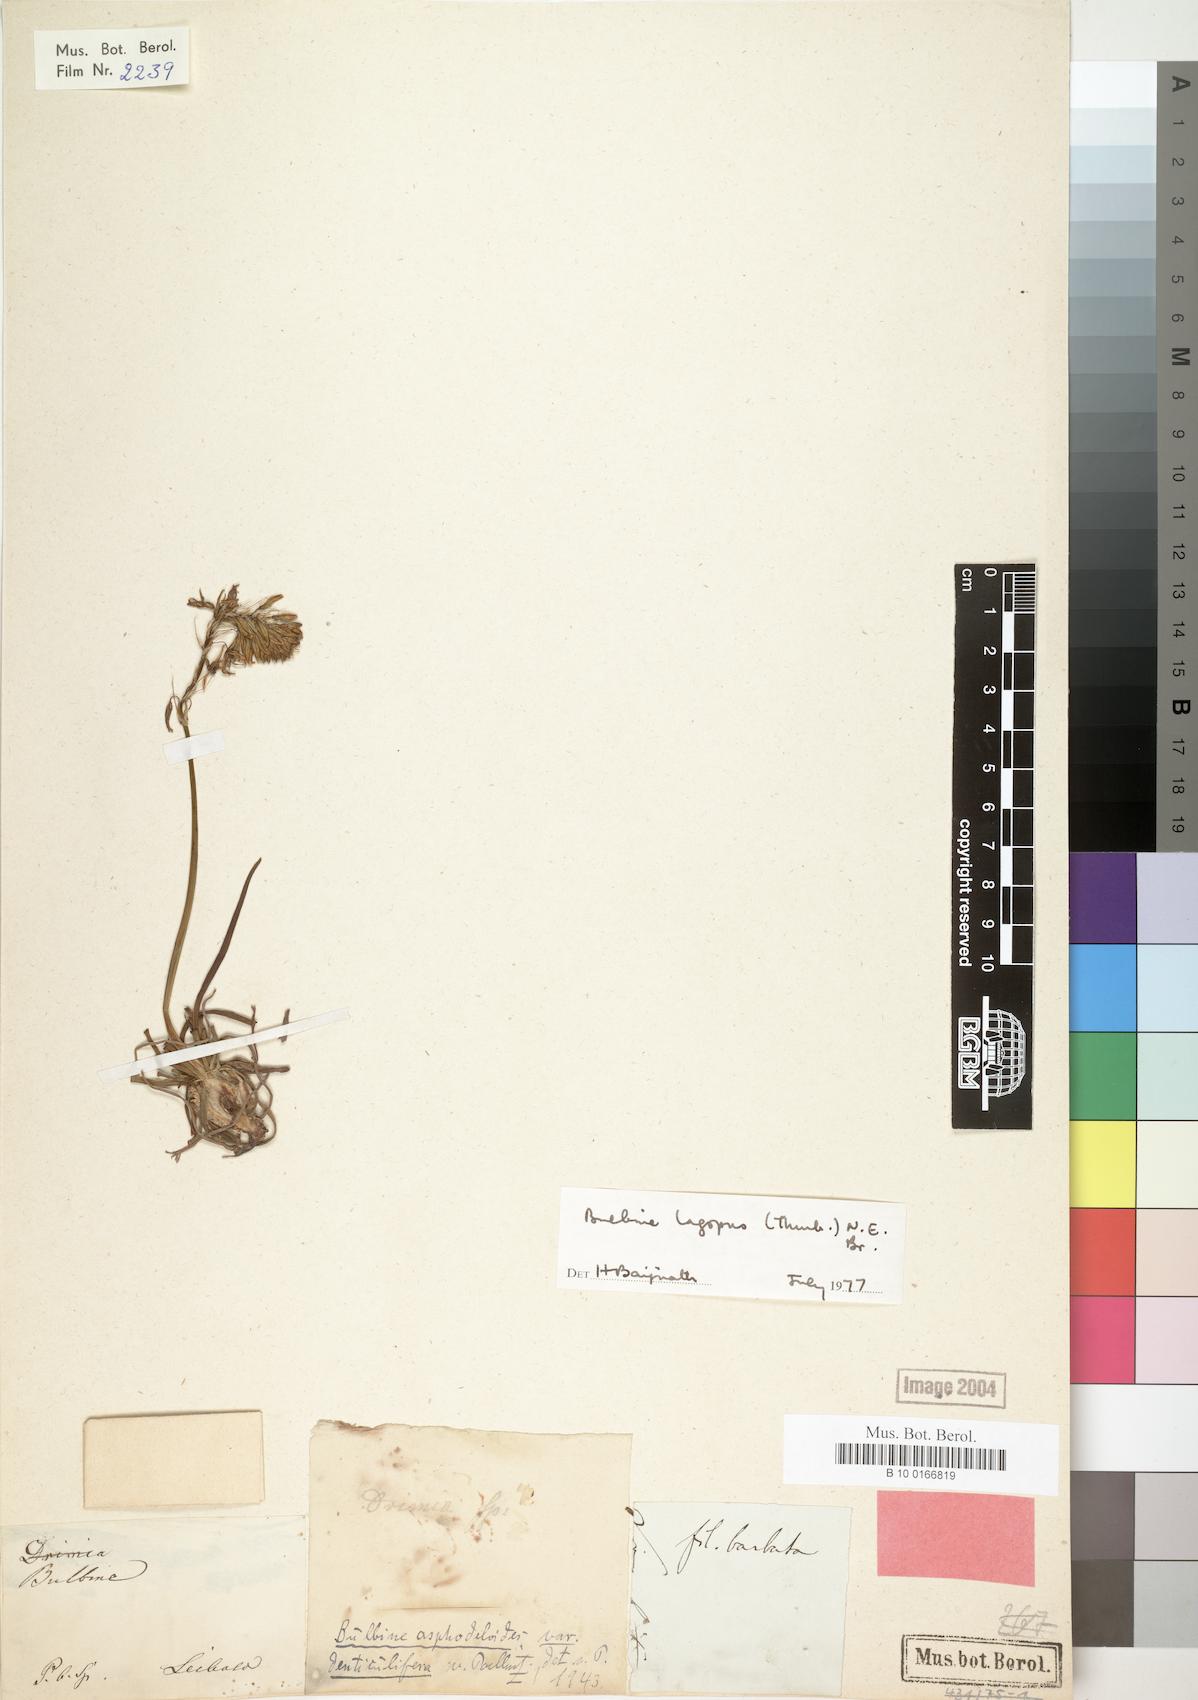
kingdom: Plantae
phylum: Tracheophyta
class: Liliopsida
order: Asparagales
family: Asphodelaceae
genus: Bulbine
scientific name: Bulbine lagopus
